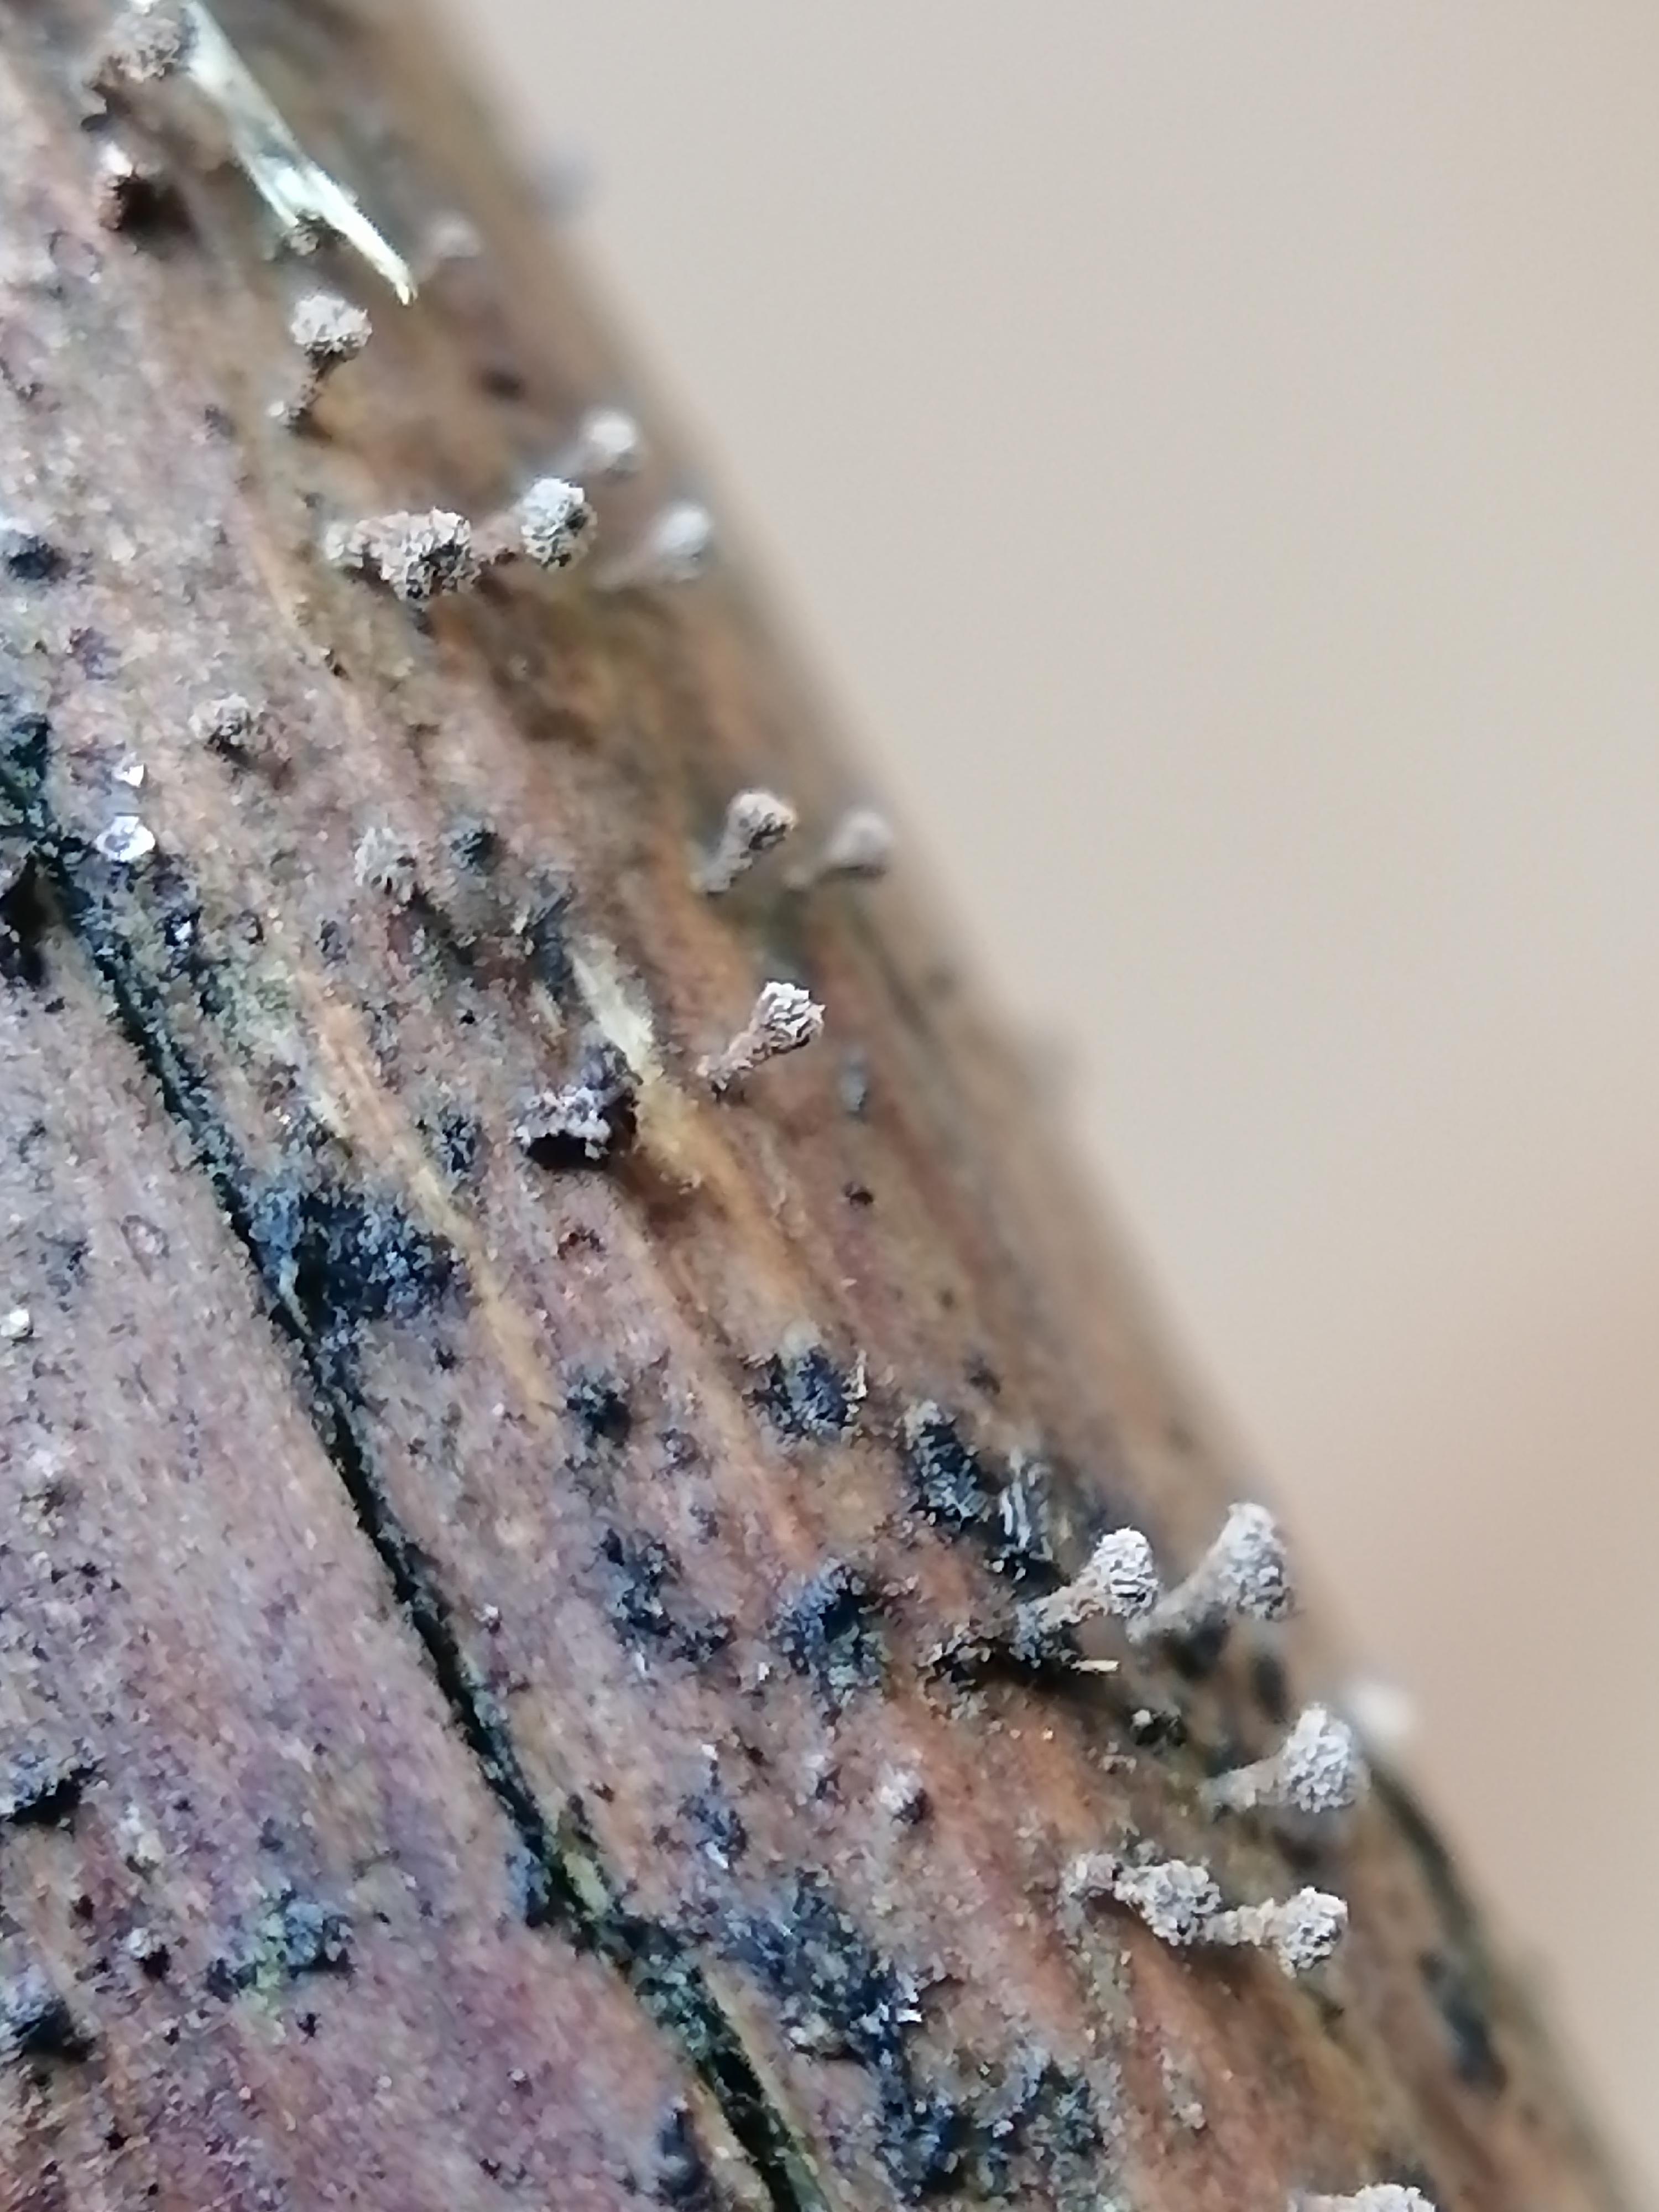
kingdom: Fungi
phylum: Ascomycota
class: Leotiomycetes
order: Helotiales
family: Lachnaceae
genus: Brunnipila
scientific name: Brunnipila clandestina
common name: hindbær-frynseskive
